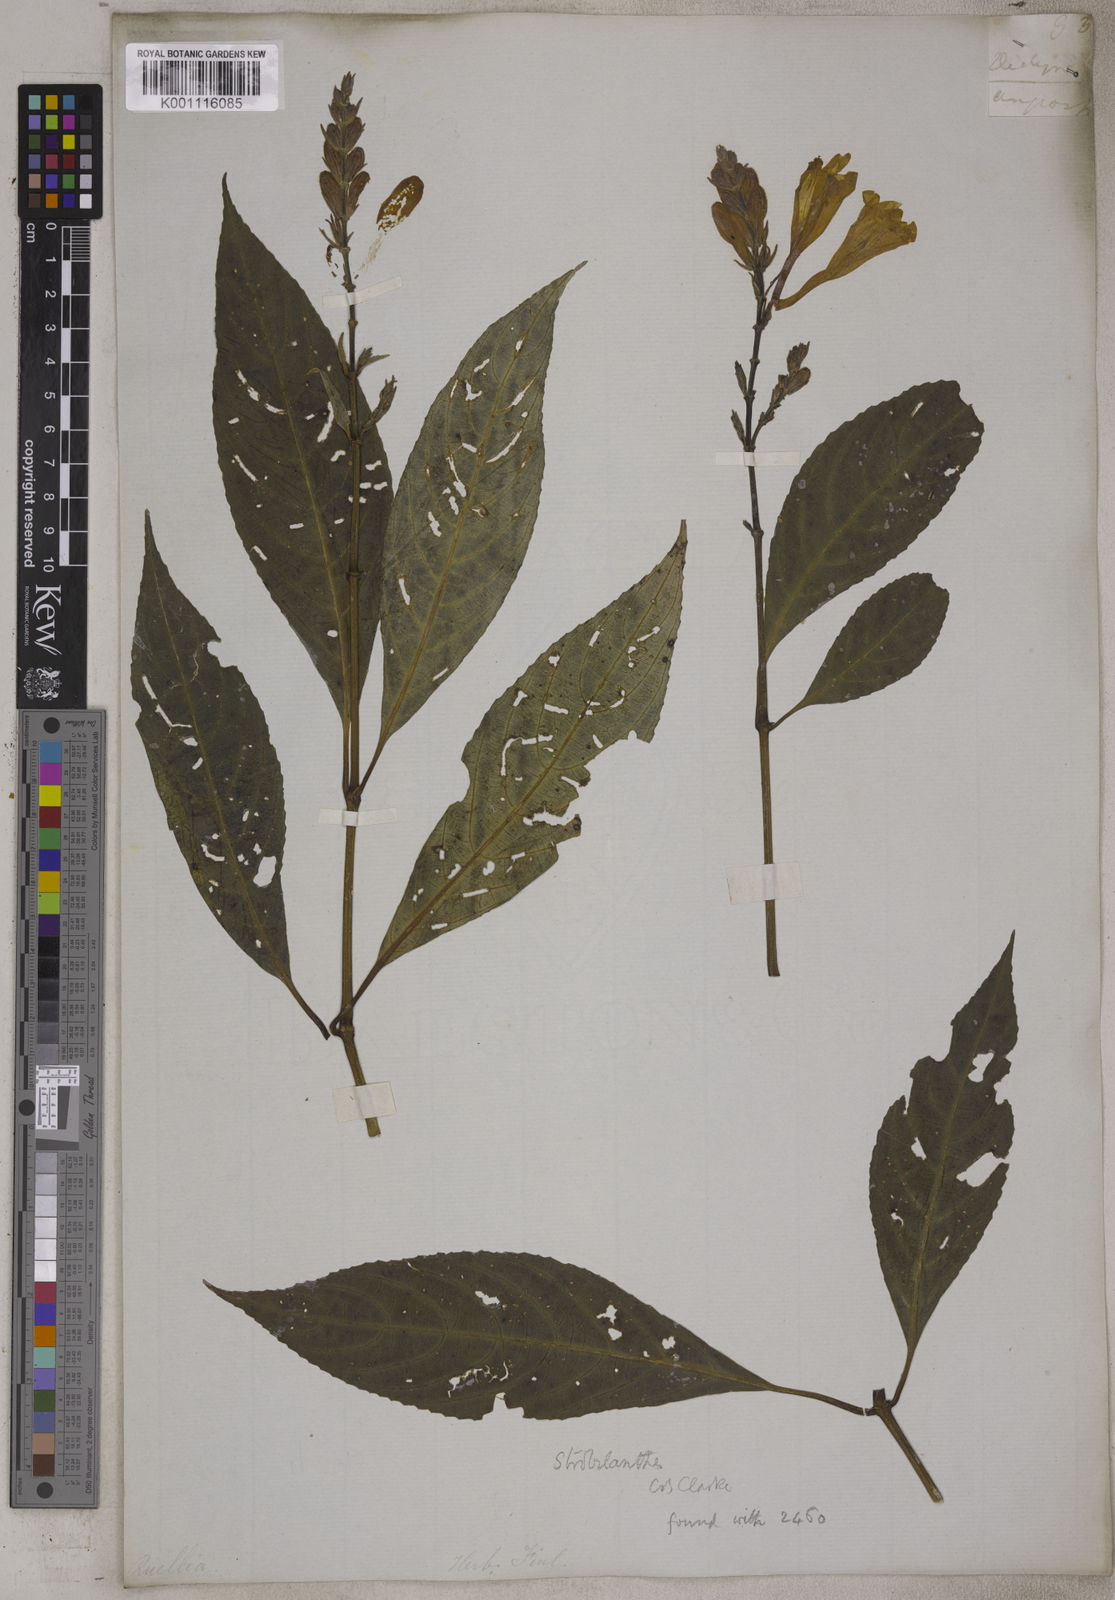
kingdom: Plantae
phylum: Tracheophyta
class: Magnoliopsida
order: Lamiales
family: Acanthaceae
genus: Barleria
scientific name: Barleria conspicua
